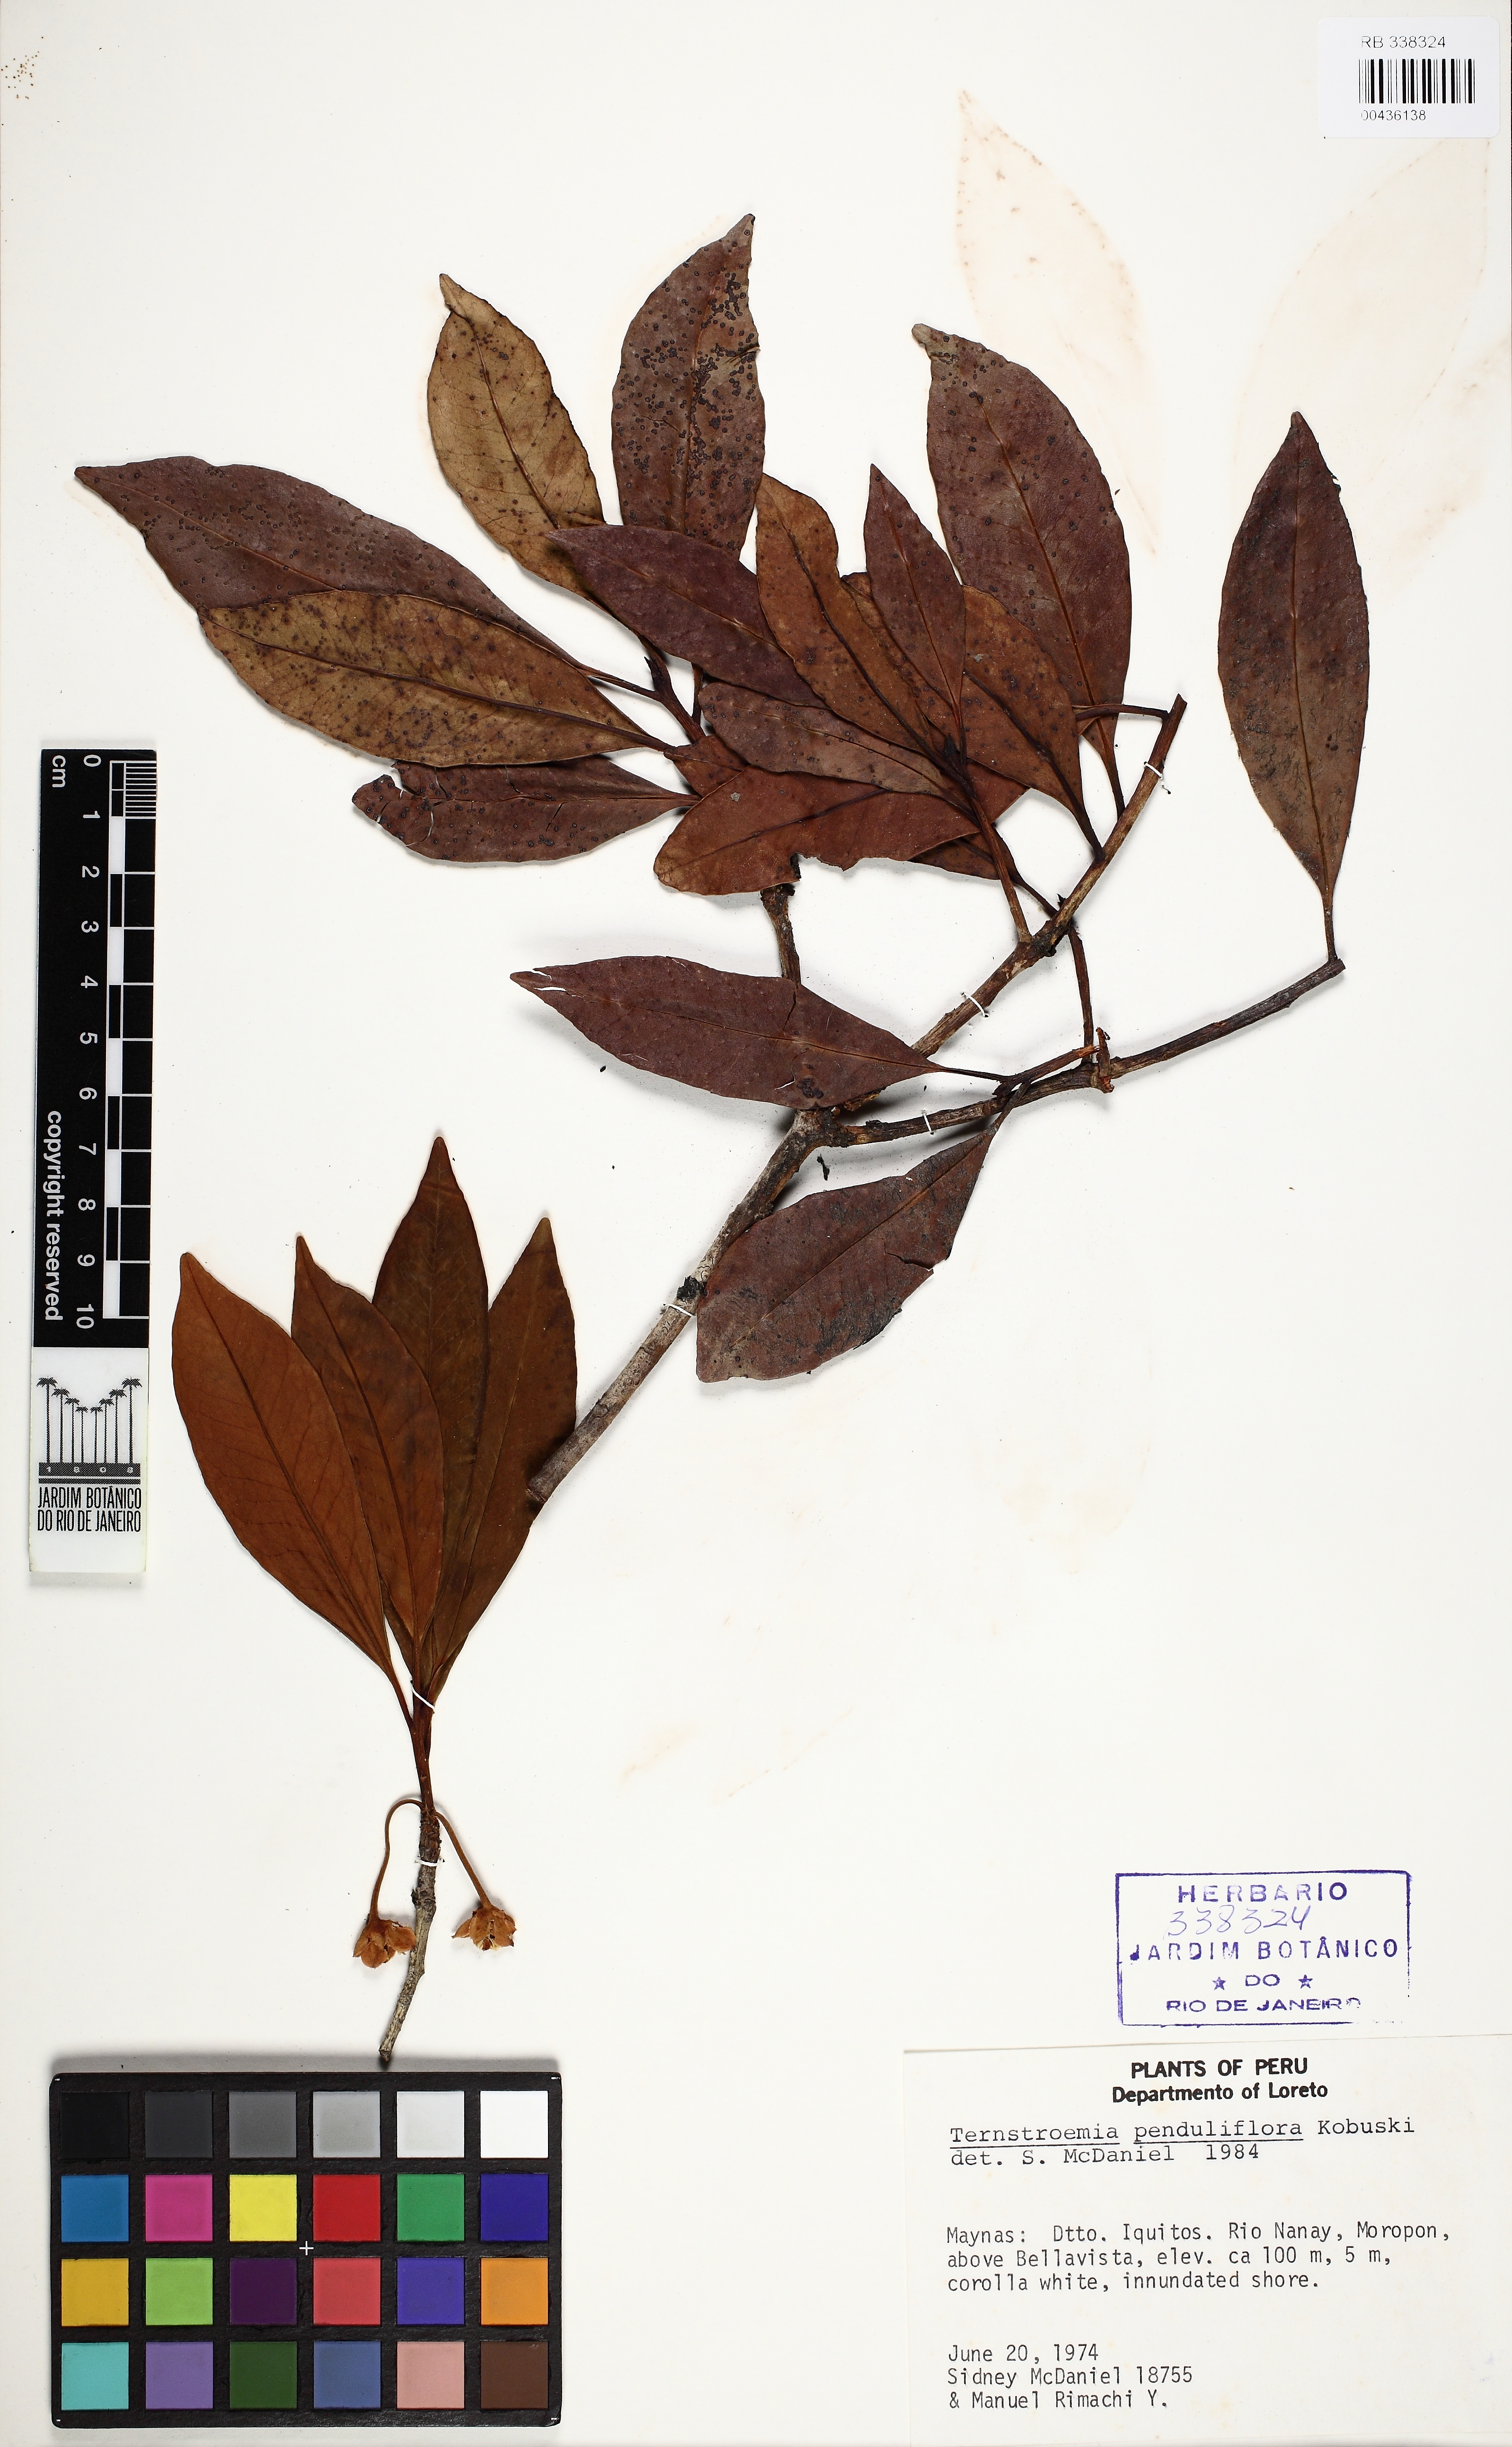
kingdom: Plantae
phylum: Tracheophyta
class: Magnoliopsida
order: Ericales
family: Pentaphylacaceae
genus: Ternstroemia
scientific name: Ternstroemia penduliflora
